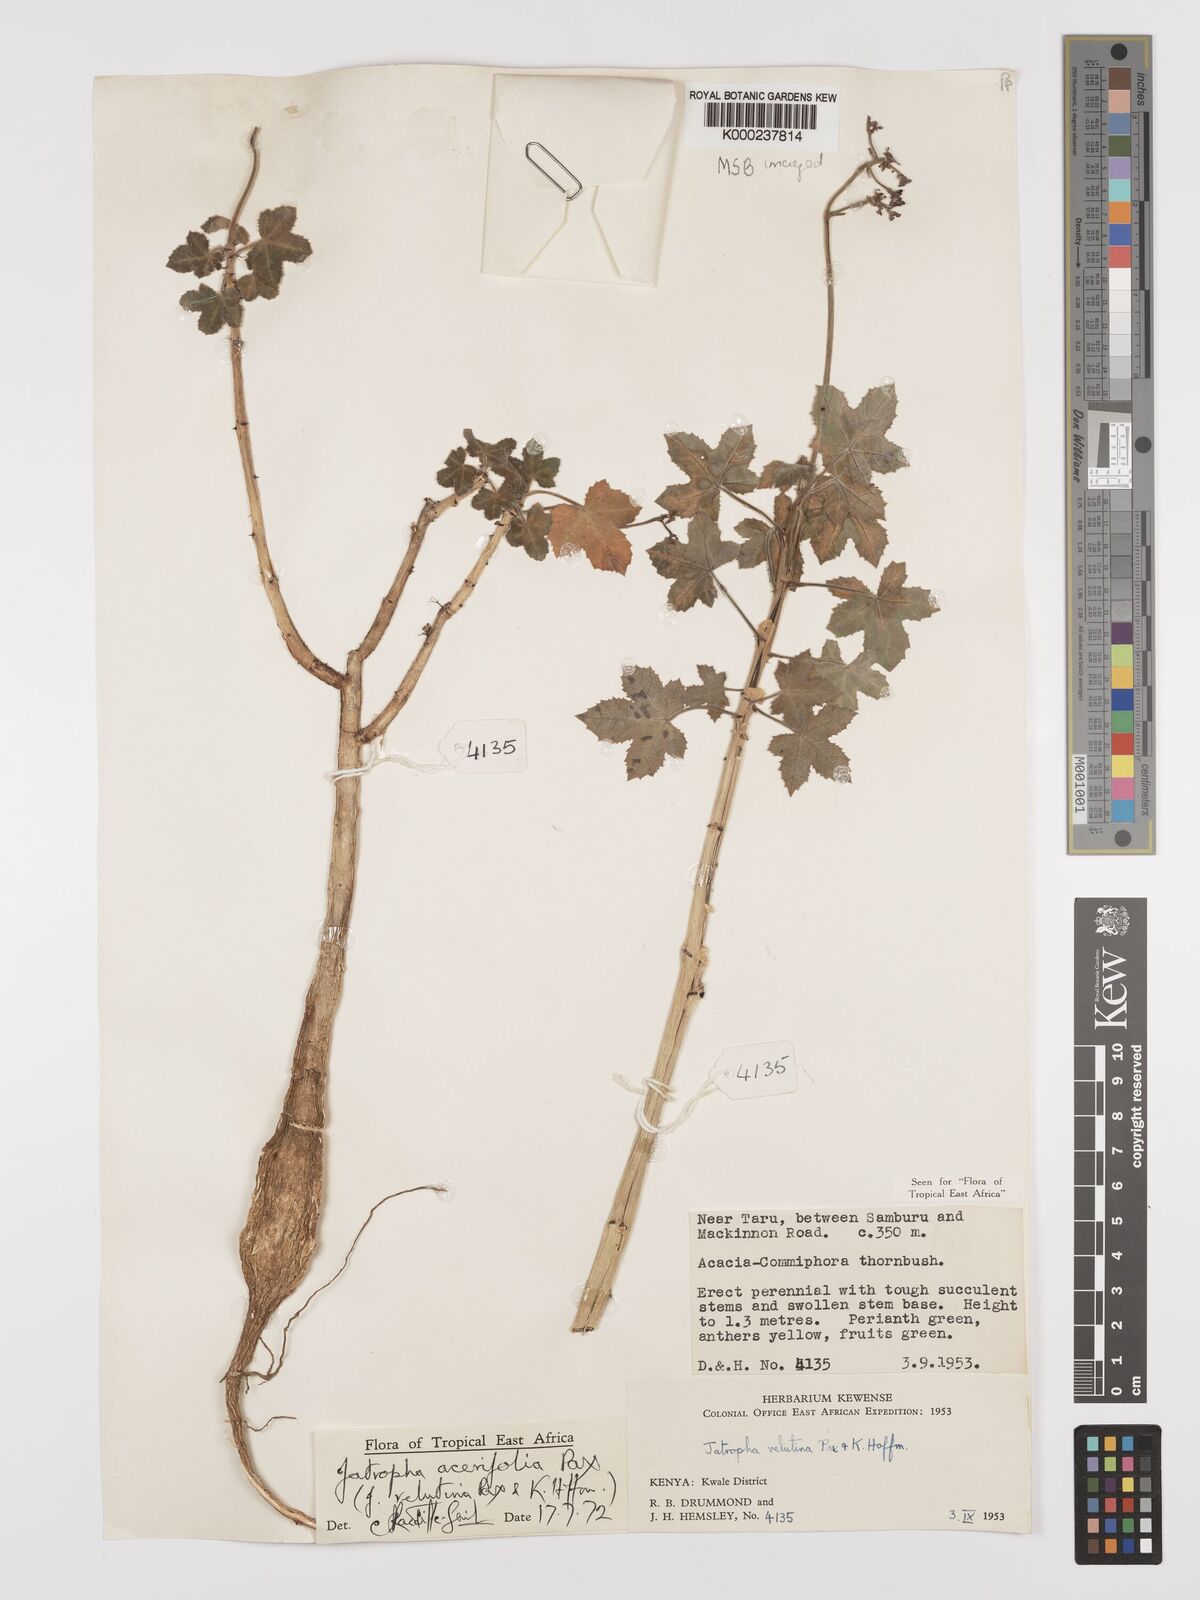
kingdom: Plantae
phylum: Tracheophyta
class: Magnoliopsida
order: Malpighiales
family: Euphorbiaceae
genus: Jatropha
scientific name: Jatropha velutina
